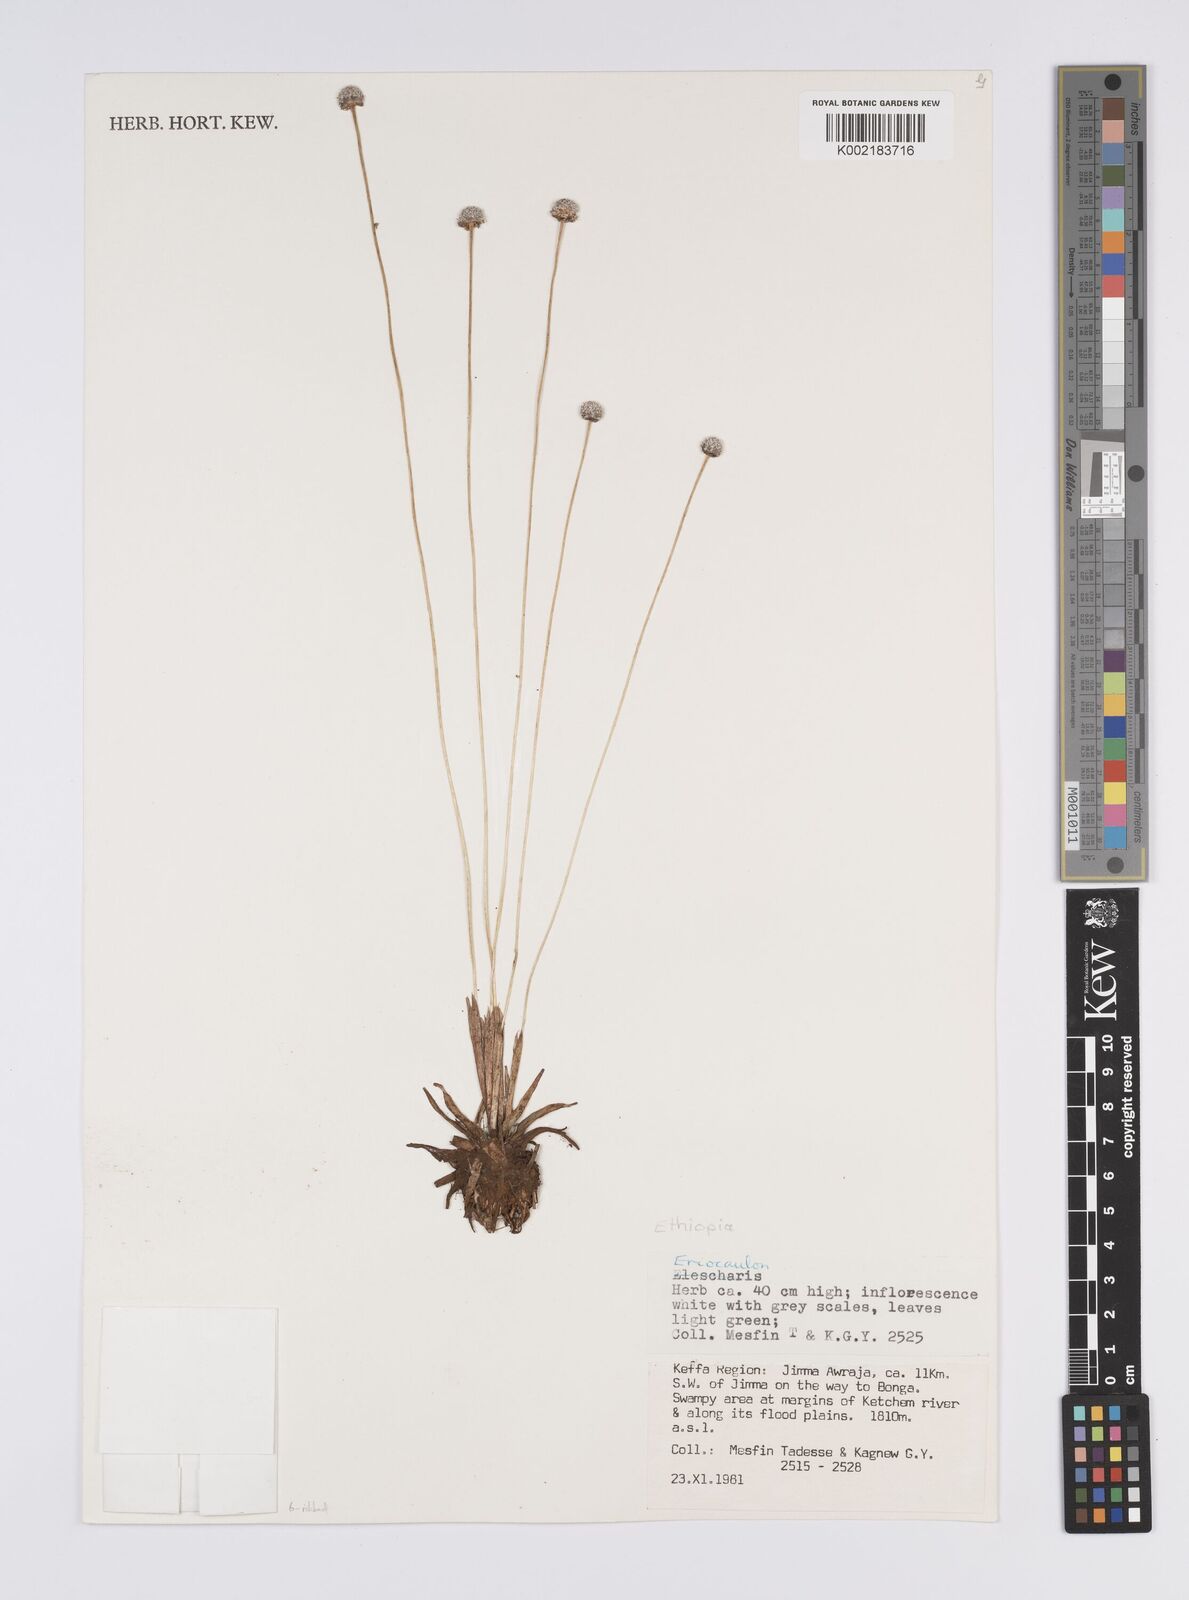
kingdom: Plantae
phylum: Tracheophyta
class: Liliopsida
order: Poales
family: Eriocaulaceae
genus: Eriocaulon
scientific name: Eriocaulon transvaalicum
